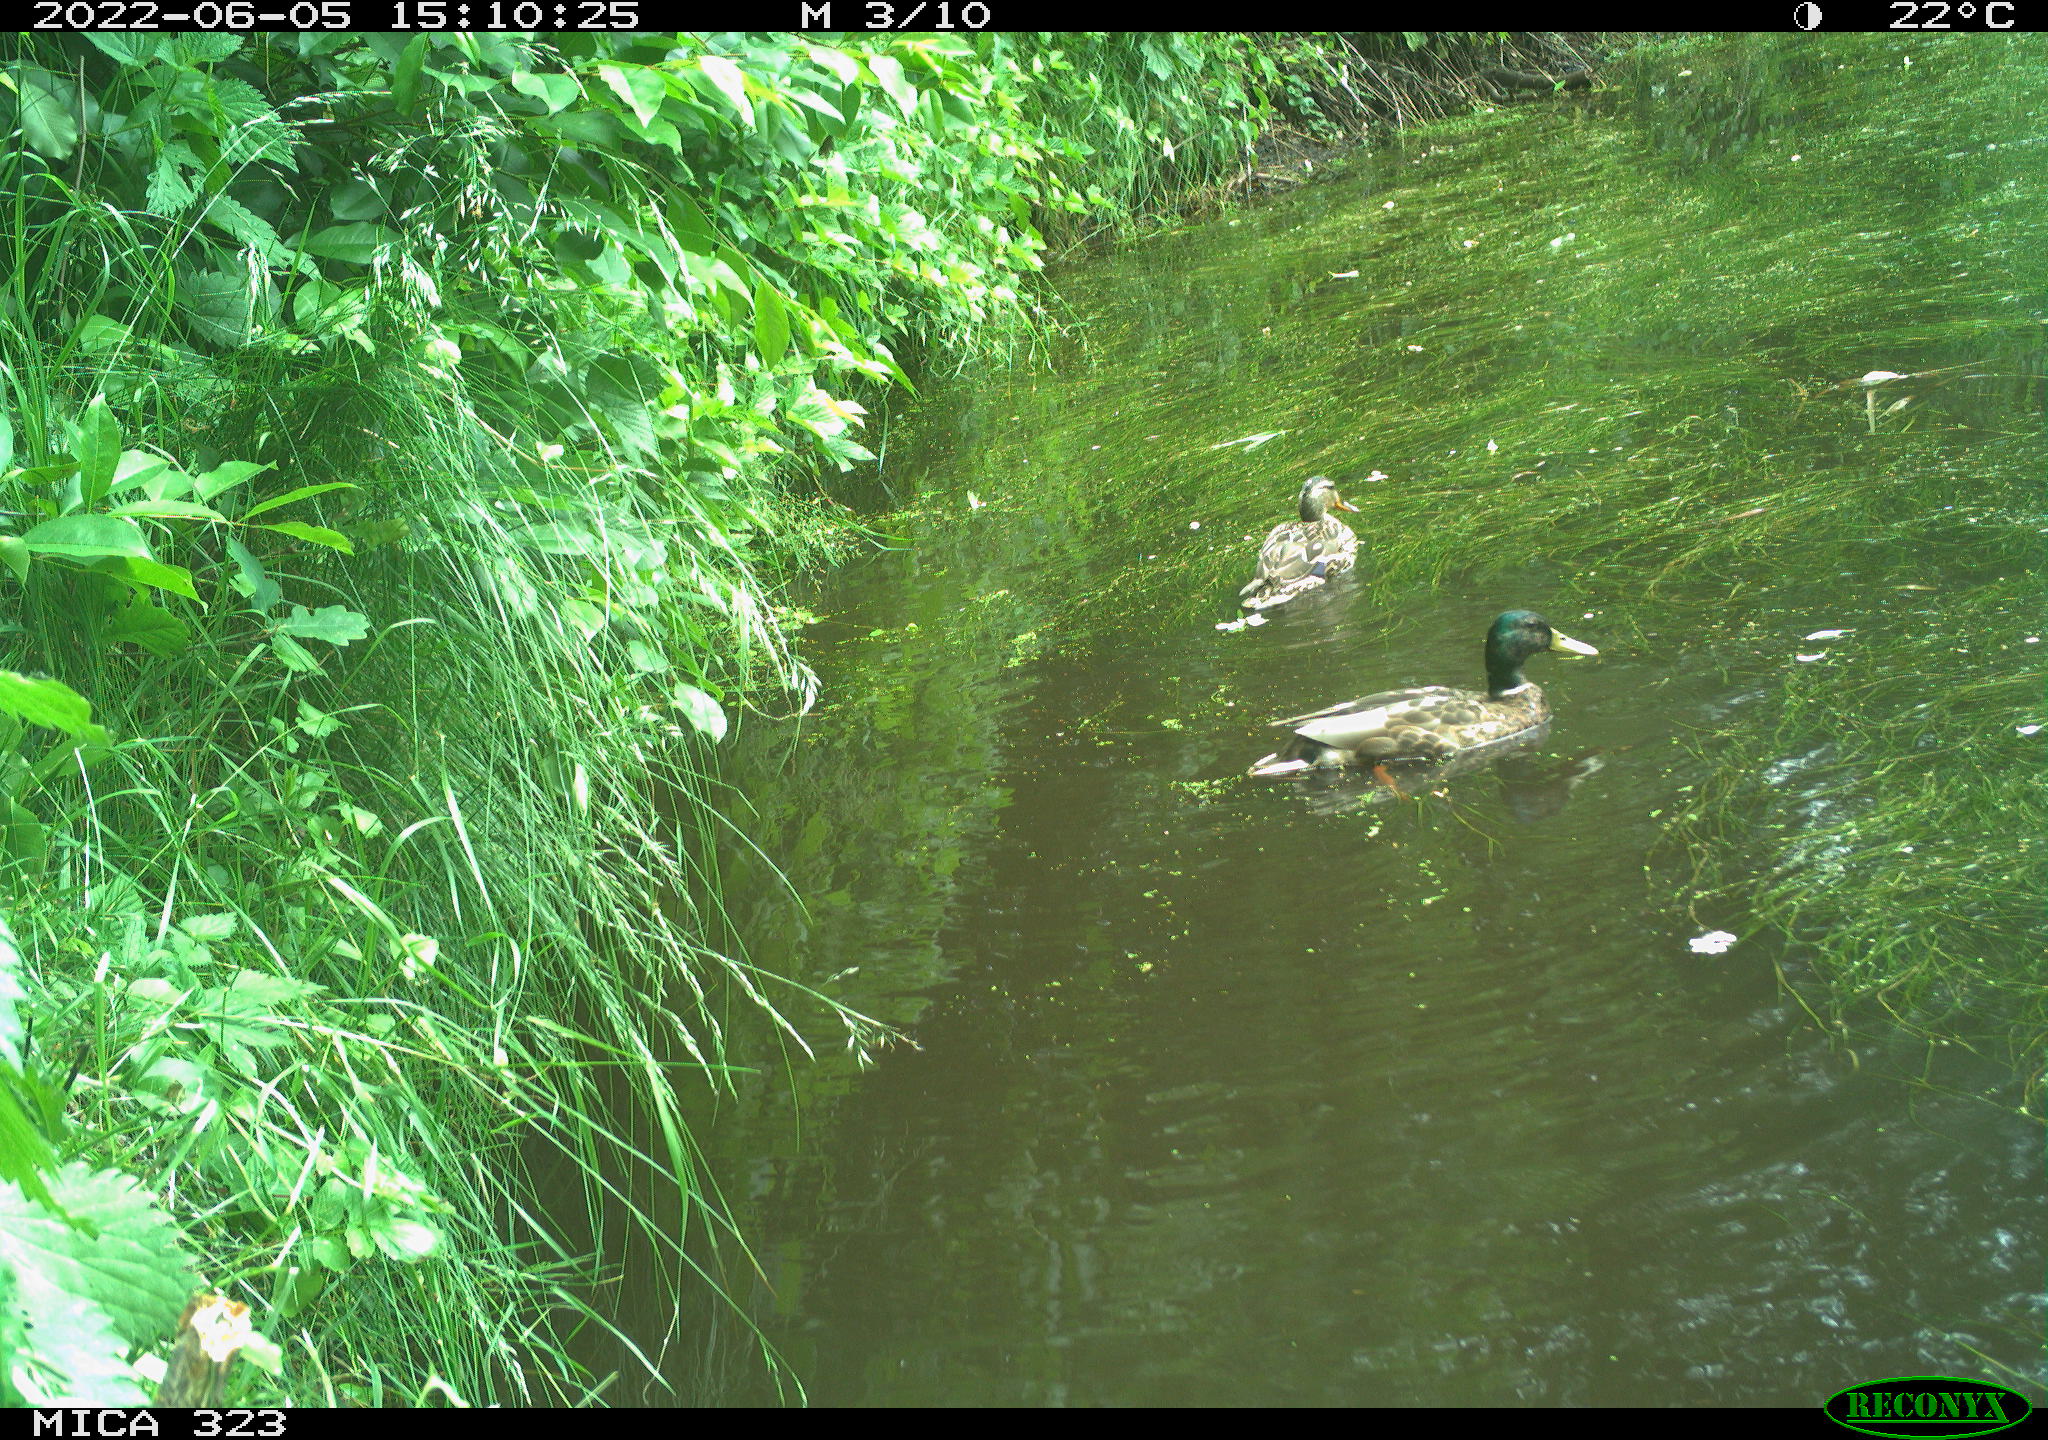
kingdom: Animalia
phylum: Chordata
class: Aves
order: Anseriformes
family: Anatidae
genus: Anas
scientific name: Anas platyrhynchos
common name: Mallard
